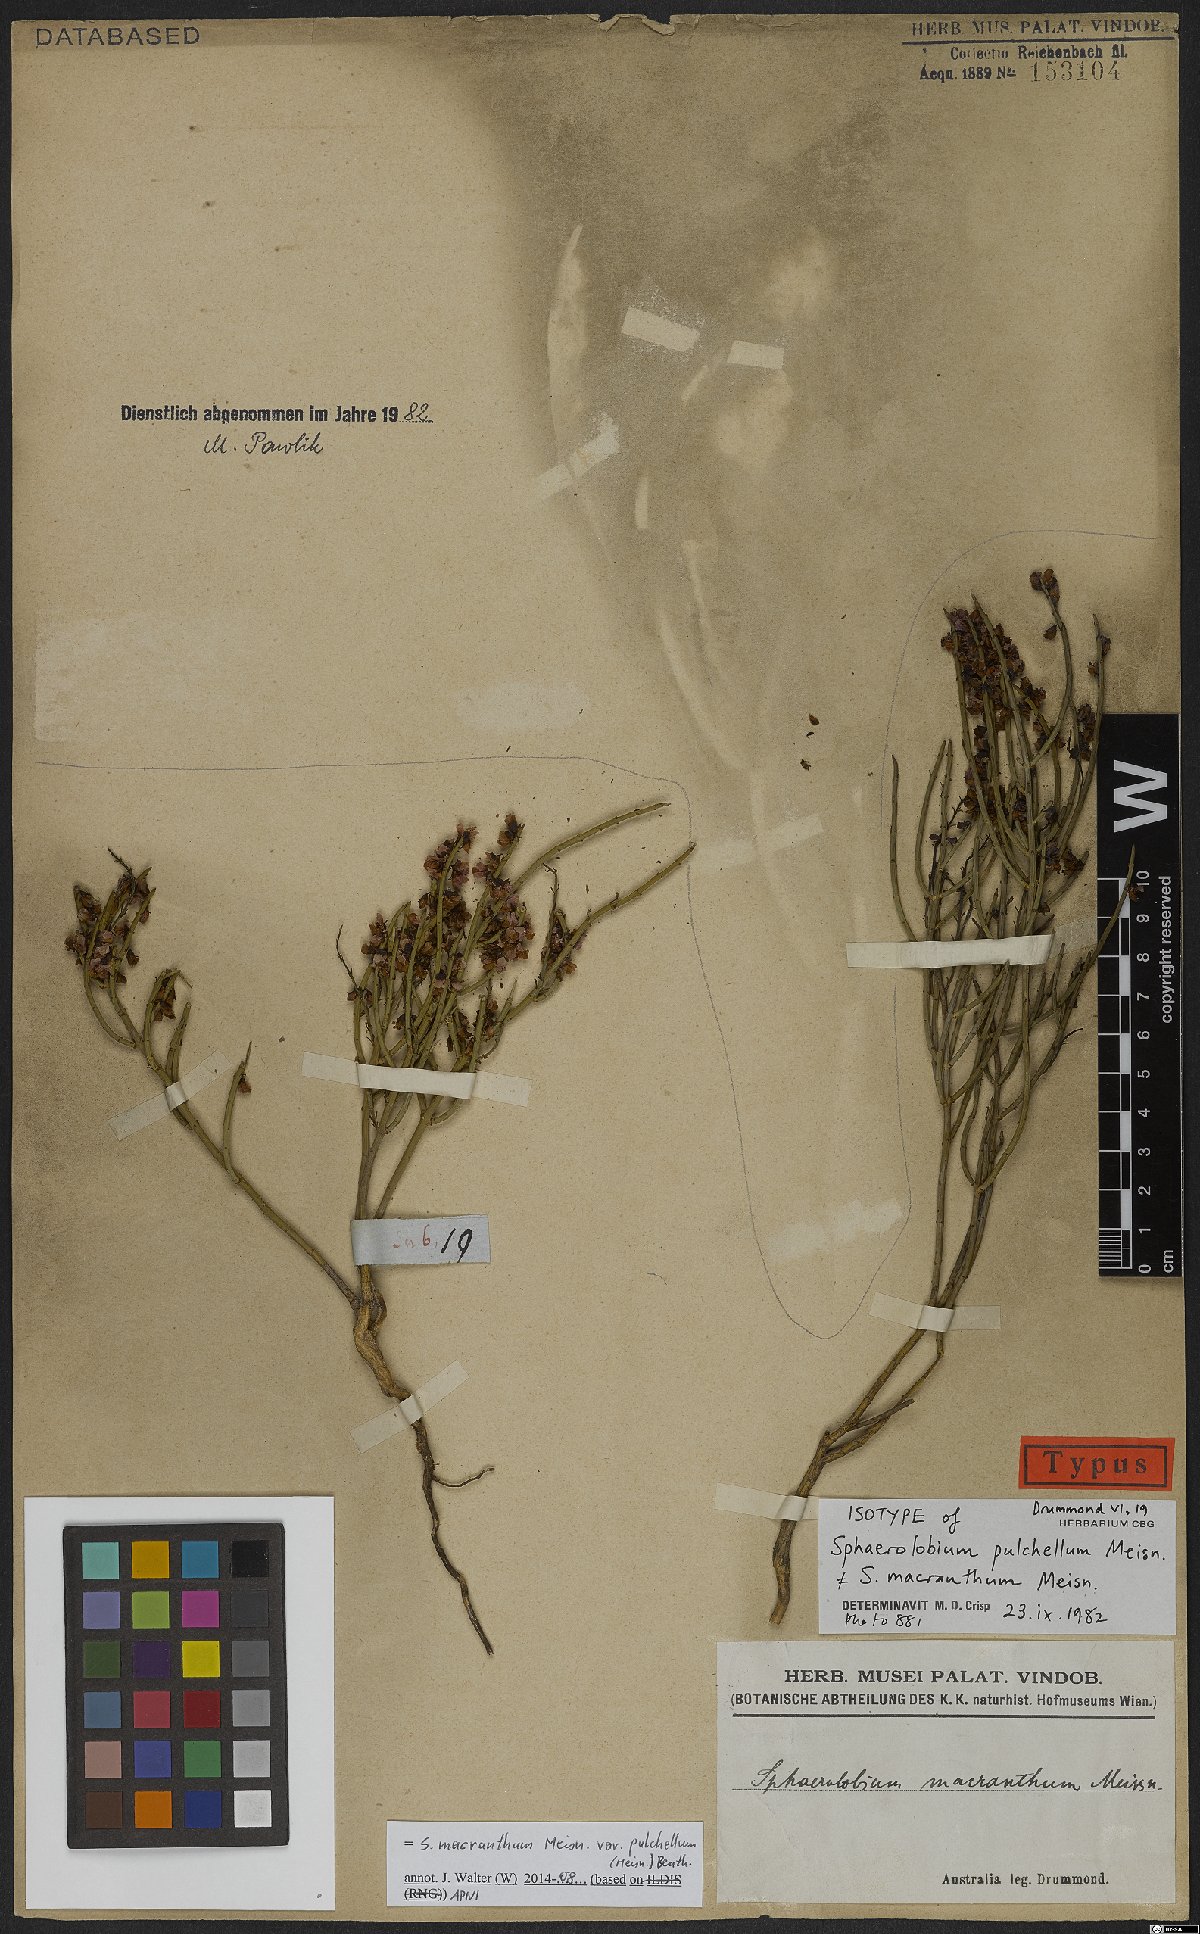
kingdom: Plantae
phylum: Tracheophyta
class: Magnoliopsida
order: Fabales
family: Fabaceae
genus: Sphaerolobium
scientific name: Sphaerolobium pulchellum
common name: Reed pea
